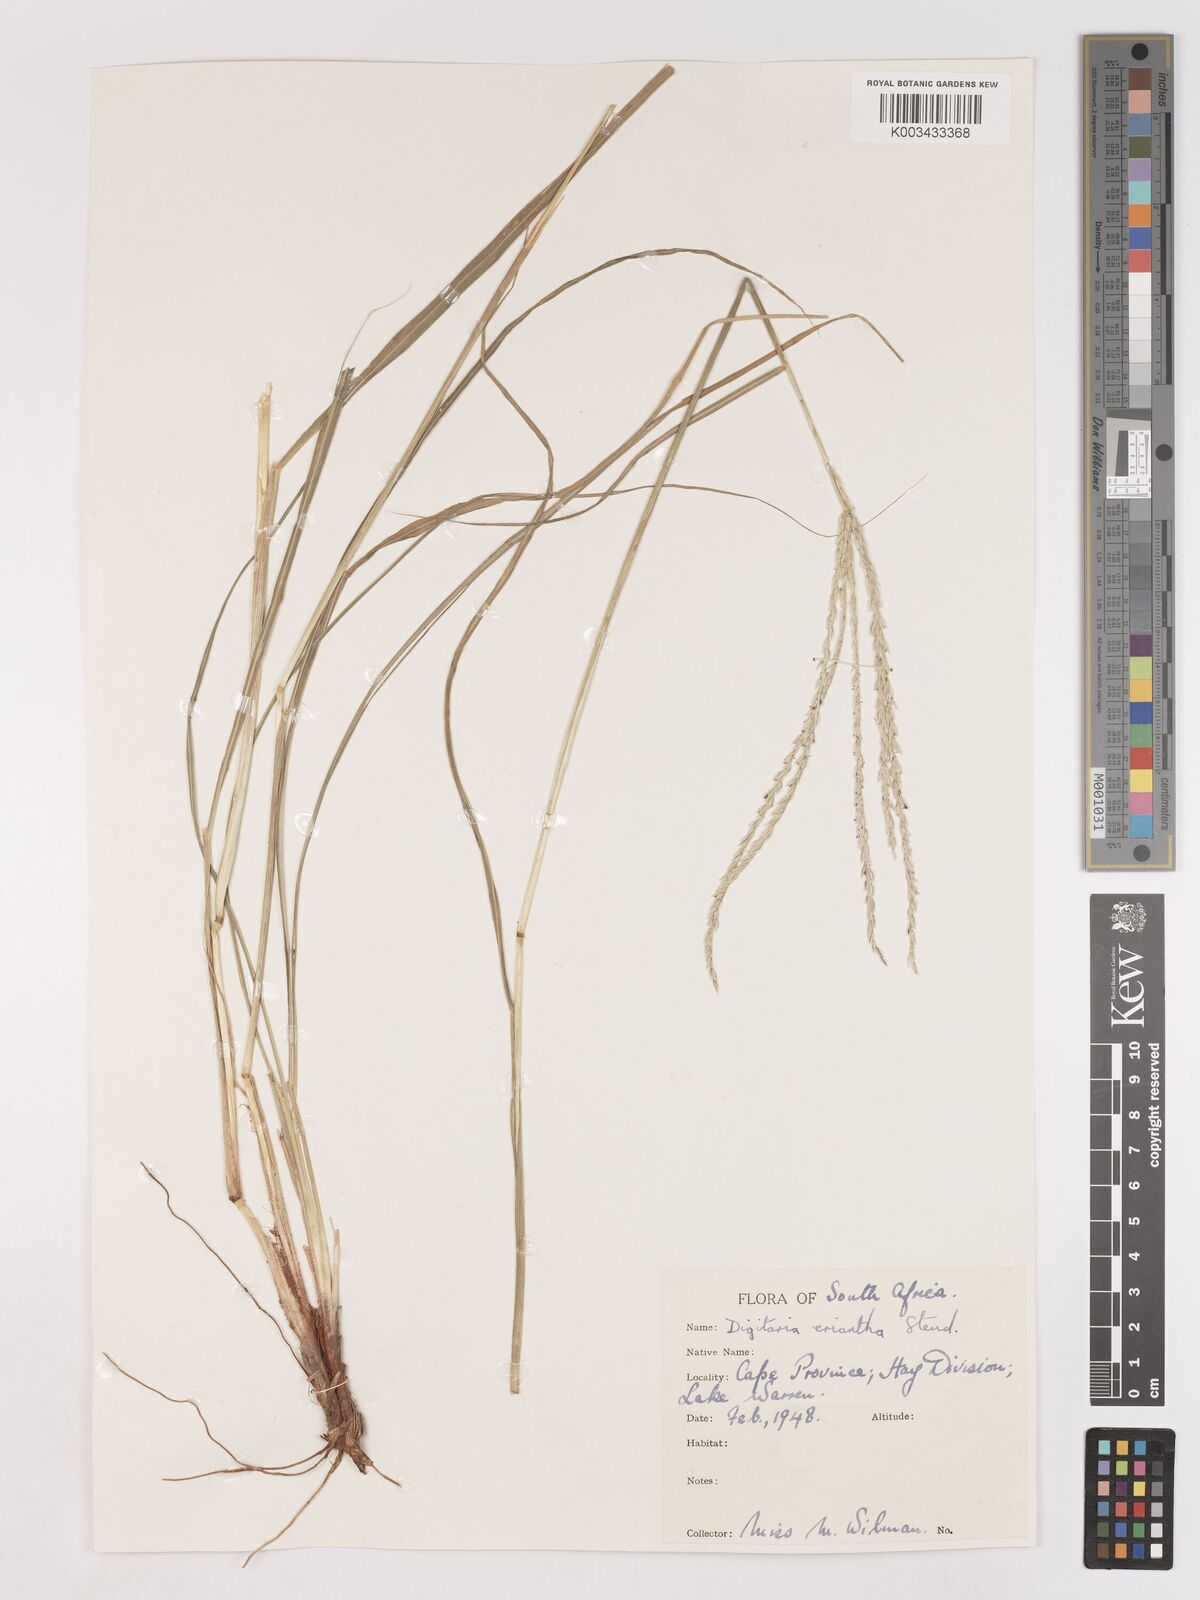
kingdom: Plantae
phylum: Tracheophyta
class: Liliopsida
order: Poales
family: Poaceae
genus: Digitaria
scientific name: Digitaria eriantha
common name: Digitgrass
